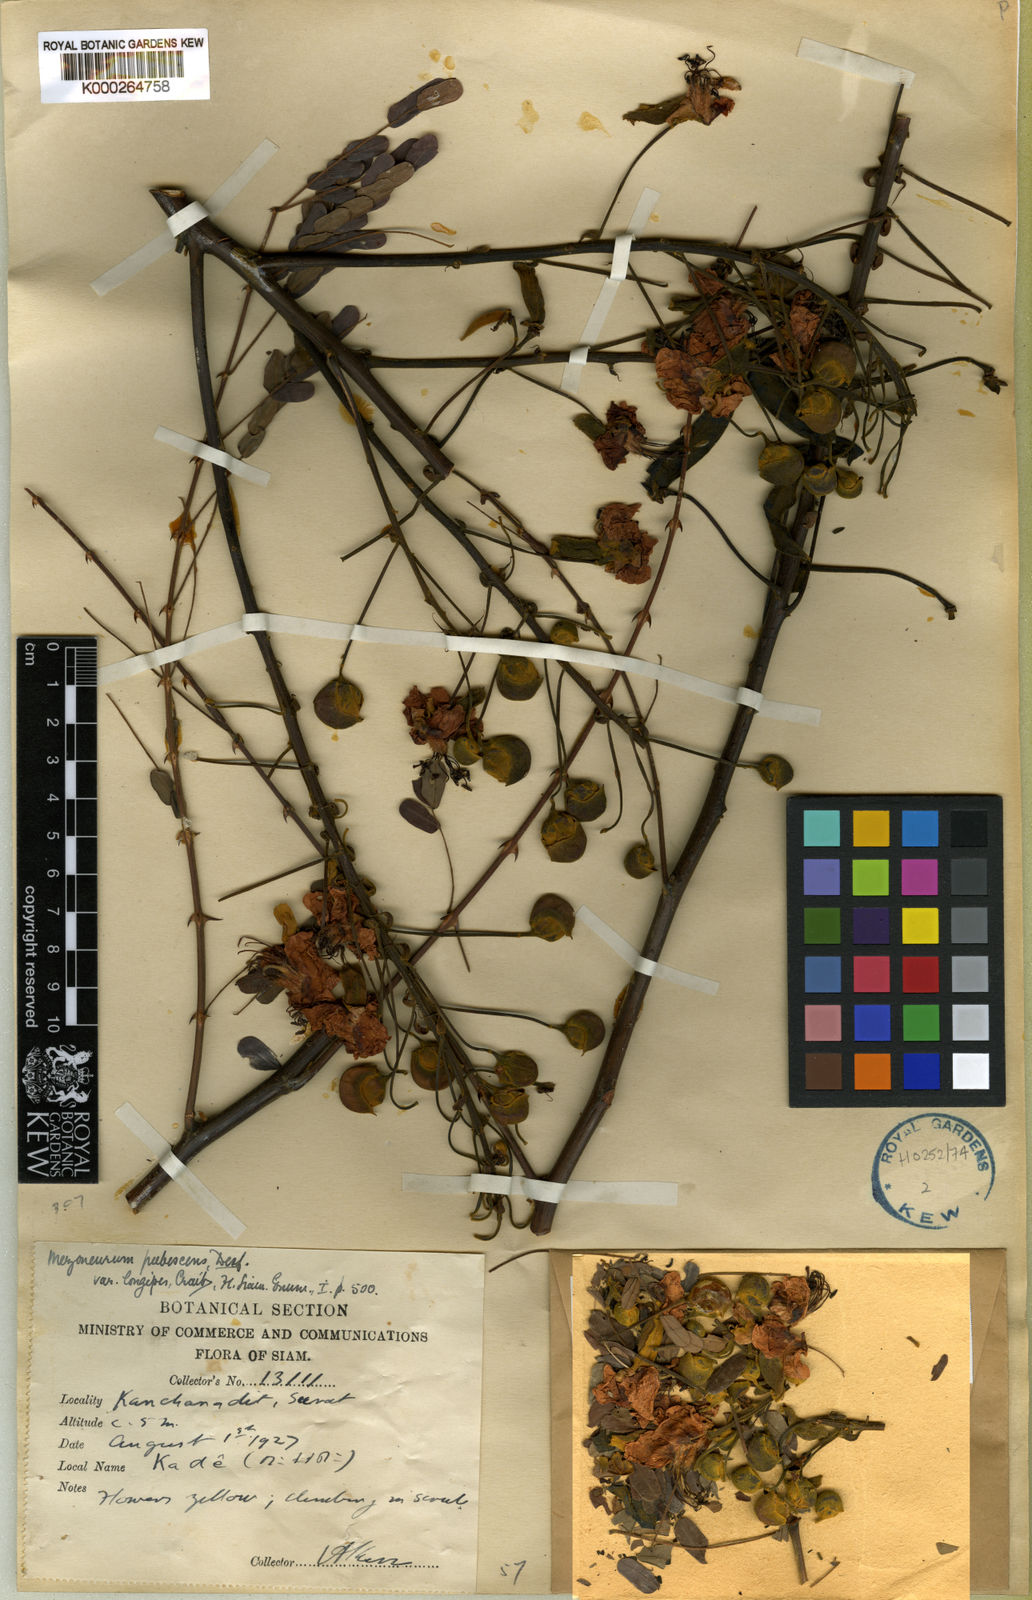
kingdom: Plantae
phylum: Tracheophyta
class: Magnoliopsida
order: Fabales
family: Fabaceae
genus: Mezoneuron
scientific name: Mezoneuron pubescens
